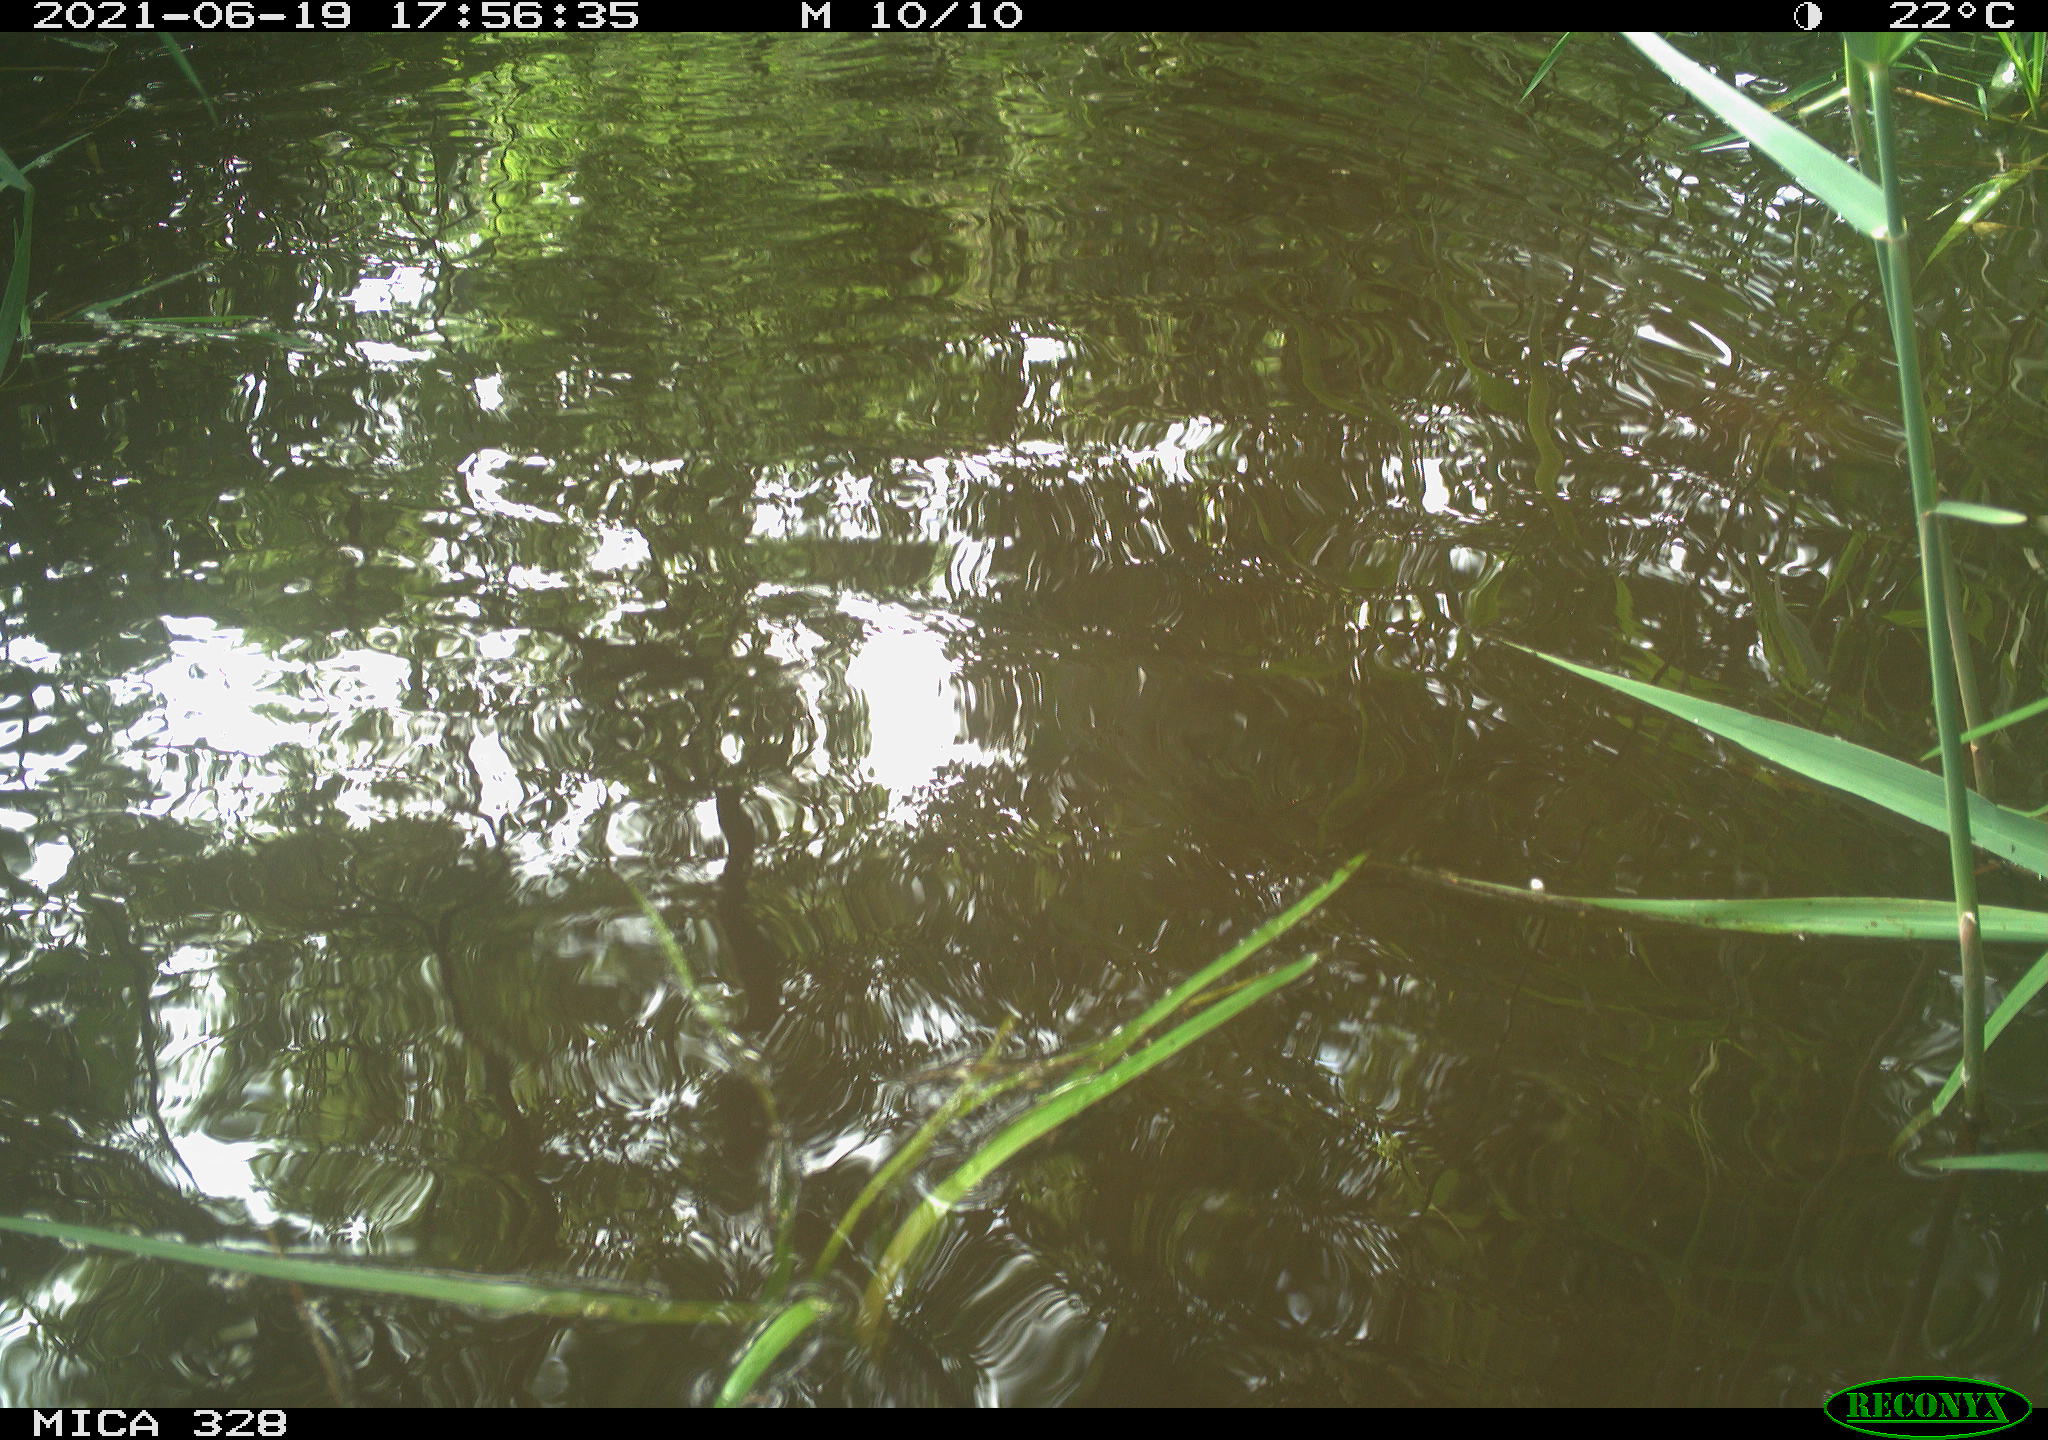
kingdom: Animalia
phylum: Chordata
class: Aves
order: Anseriformes
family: Anatidae
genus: Aix
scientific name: Aix galericulata
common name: Mandarin duck
